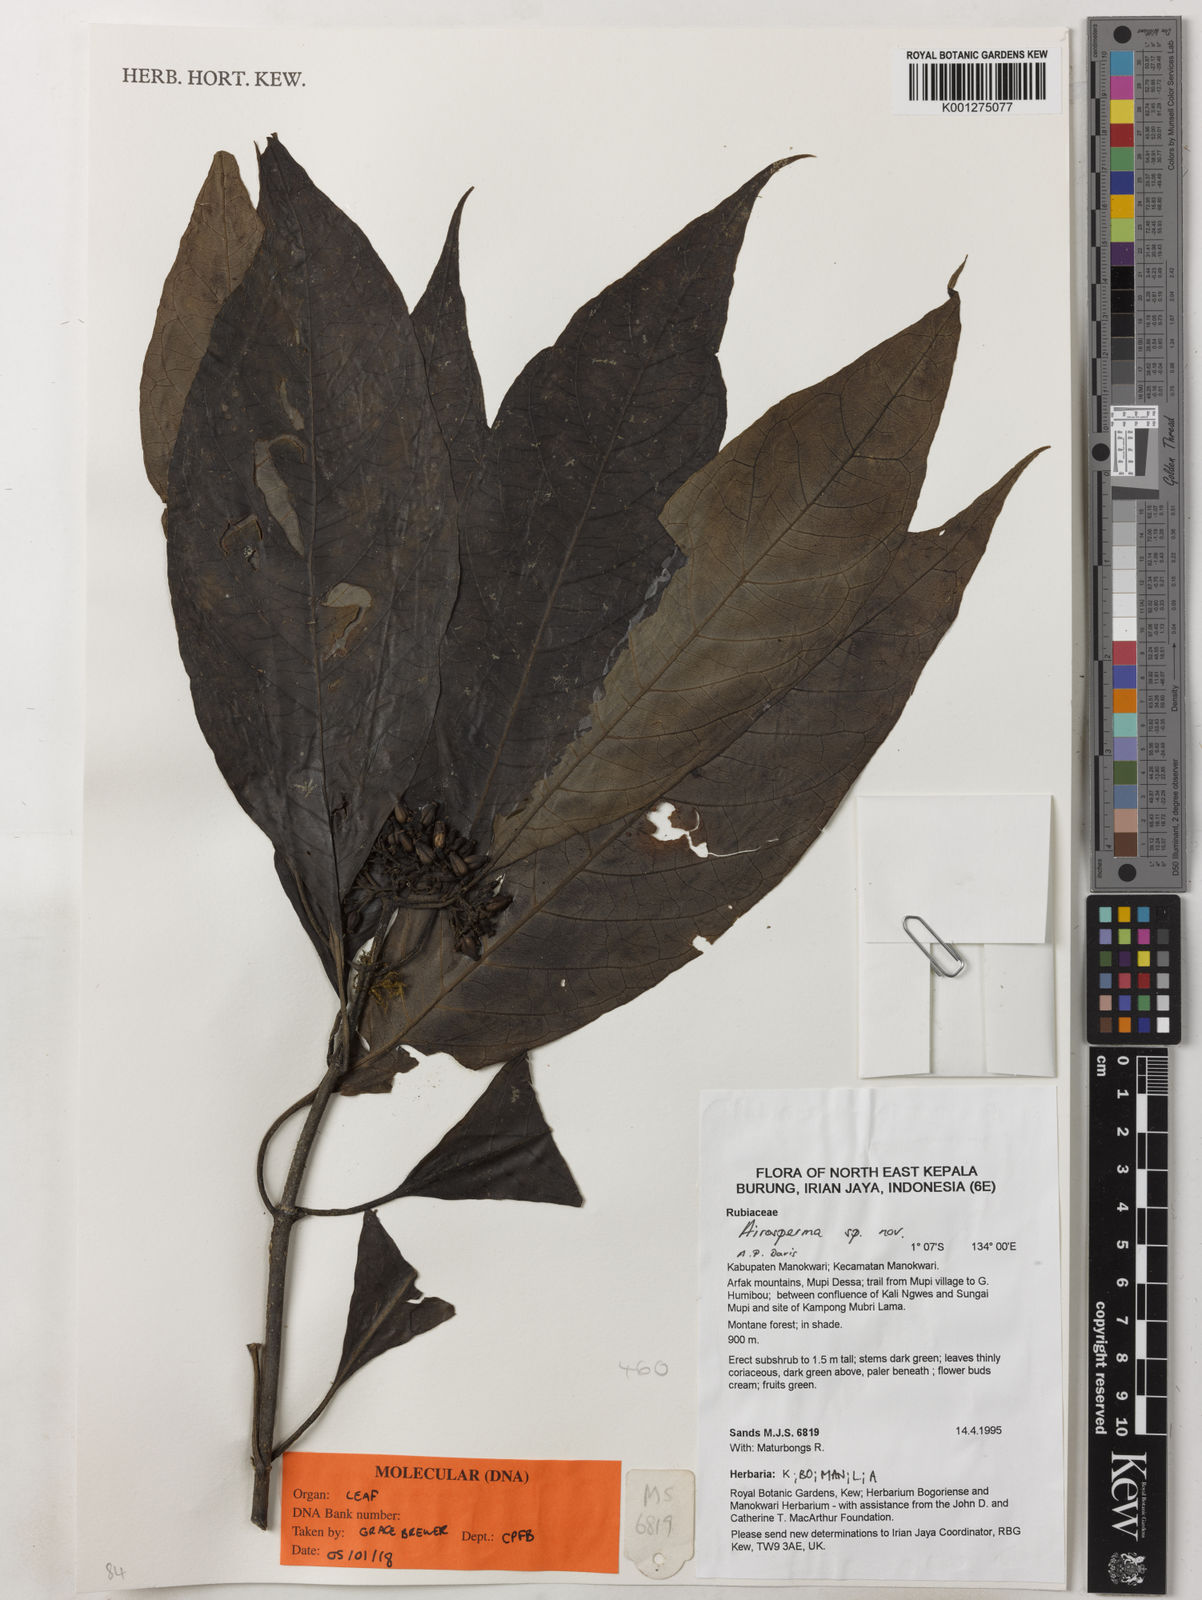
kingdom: Plantae
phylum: Tracheophyta
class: Magnoliopsida
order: Gentianales
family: Rubiaceae
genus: Airosperma
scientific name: Airosperma
